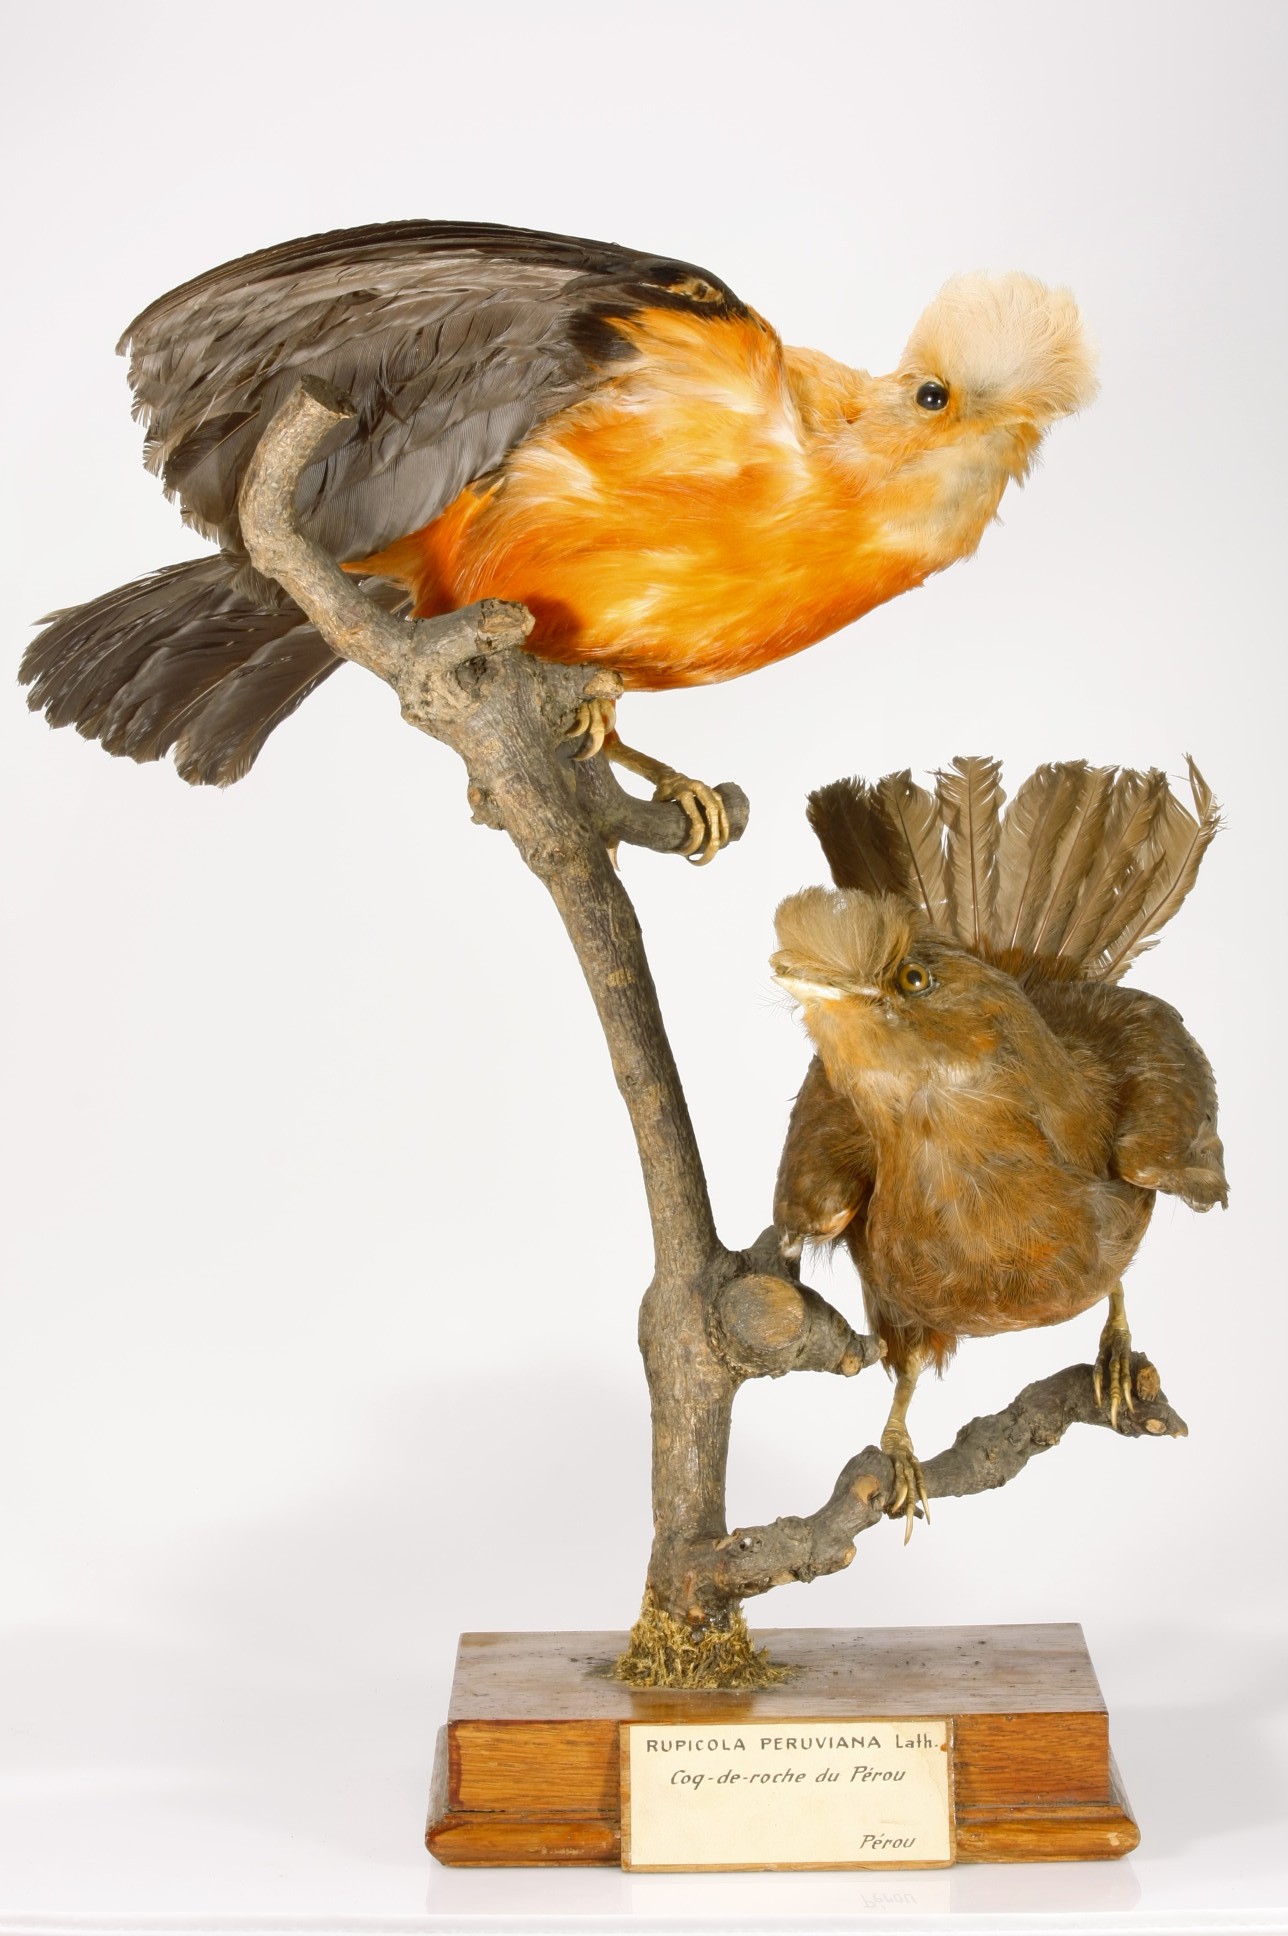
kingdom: Animalia
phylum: Chordata
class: Aves
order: Passeriformes
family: Cotingidae
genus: Rupicola
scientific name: Rupicola peruvianus
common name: Andean cock-of-the-rock
